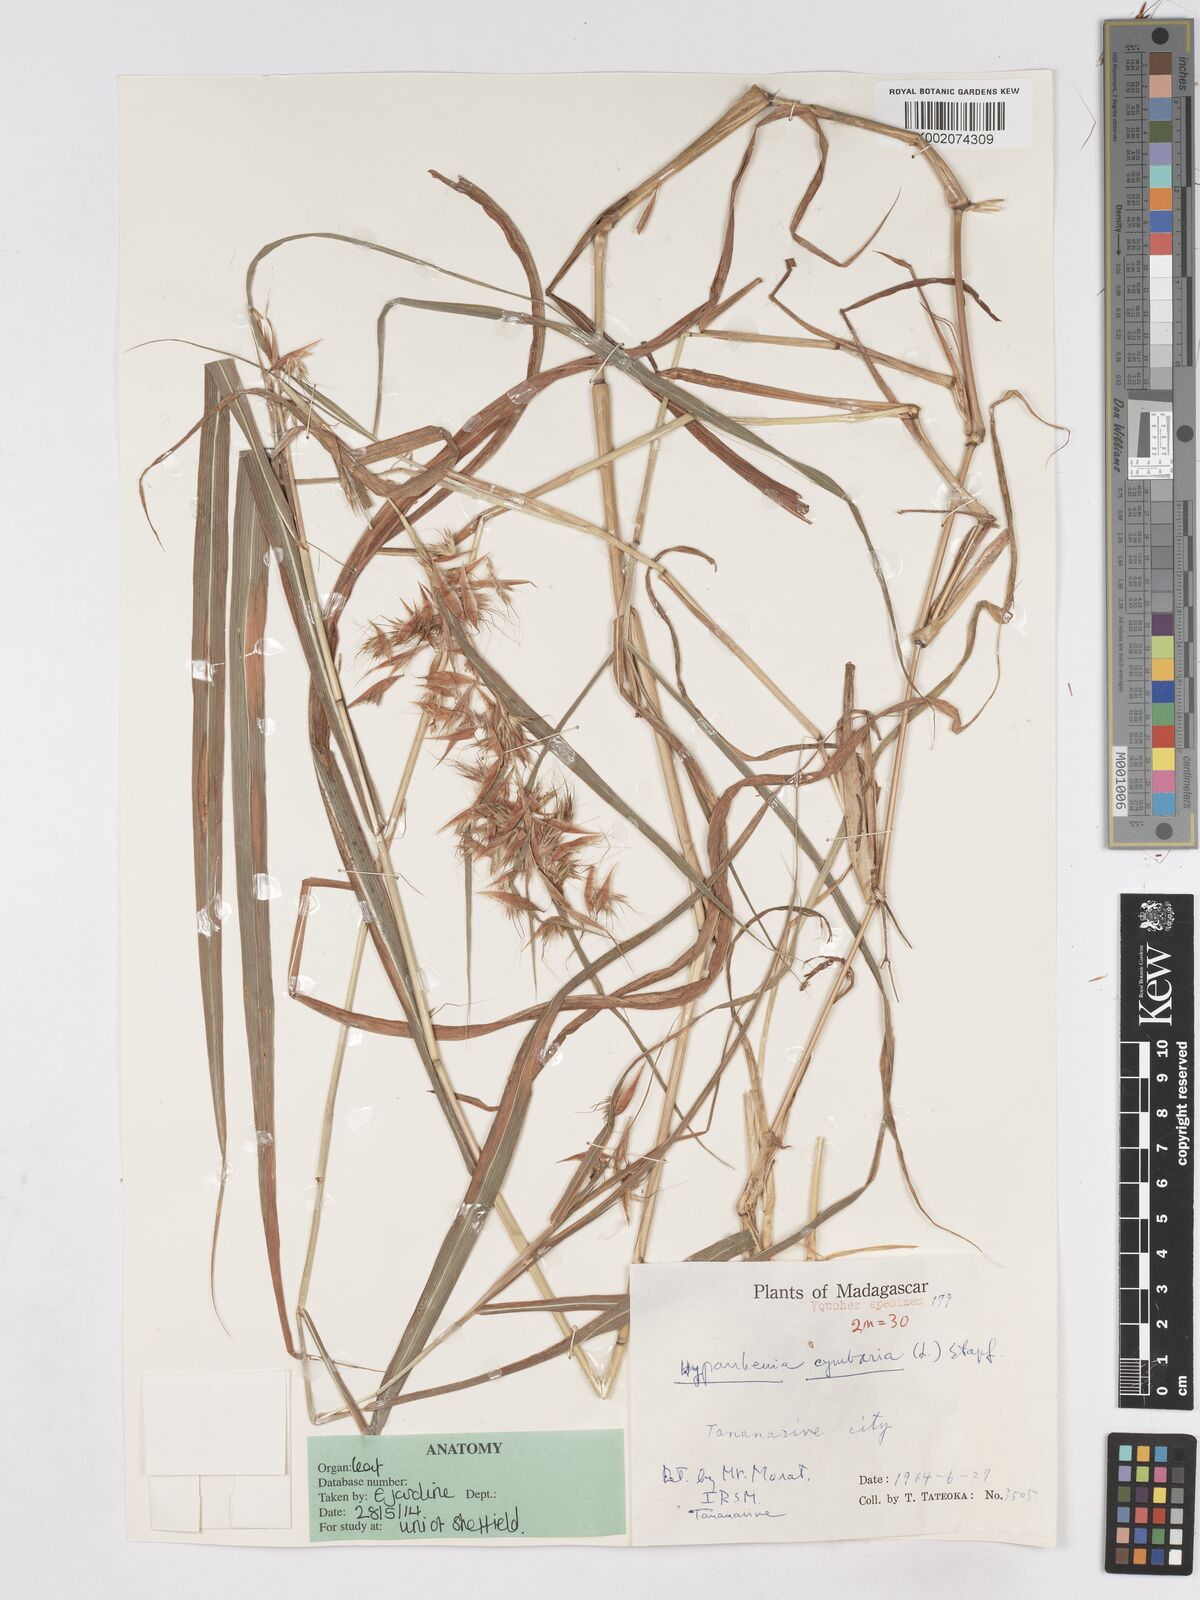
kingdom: Plantae
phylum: Tracheophyta
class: Liliopsida
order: Poales
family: Poaceae
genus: Hyparrhenia
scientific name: Hyparrhenia cymbaria
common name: Boat thatching grass
